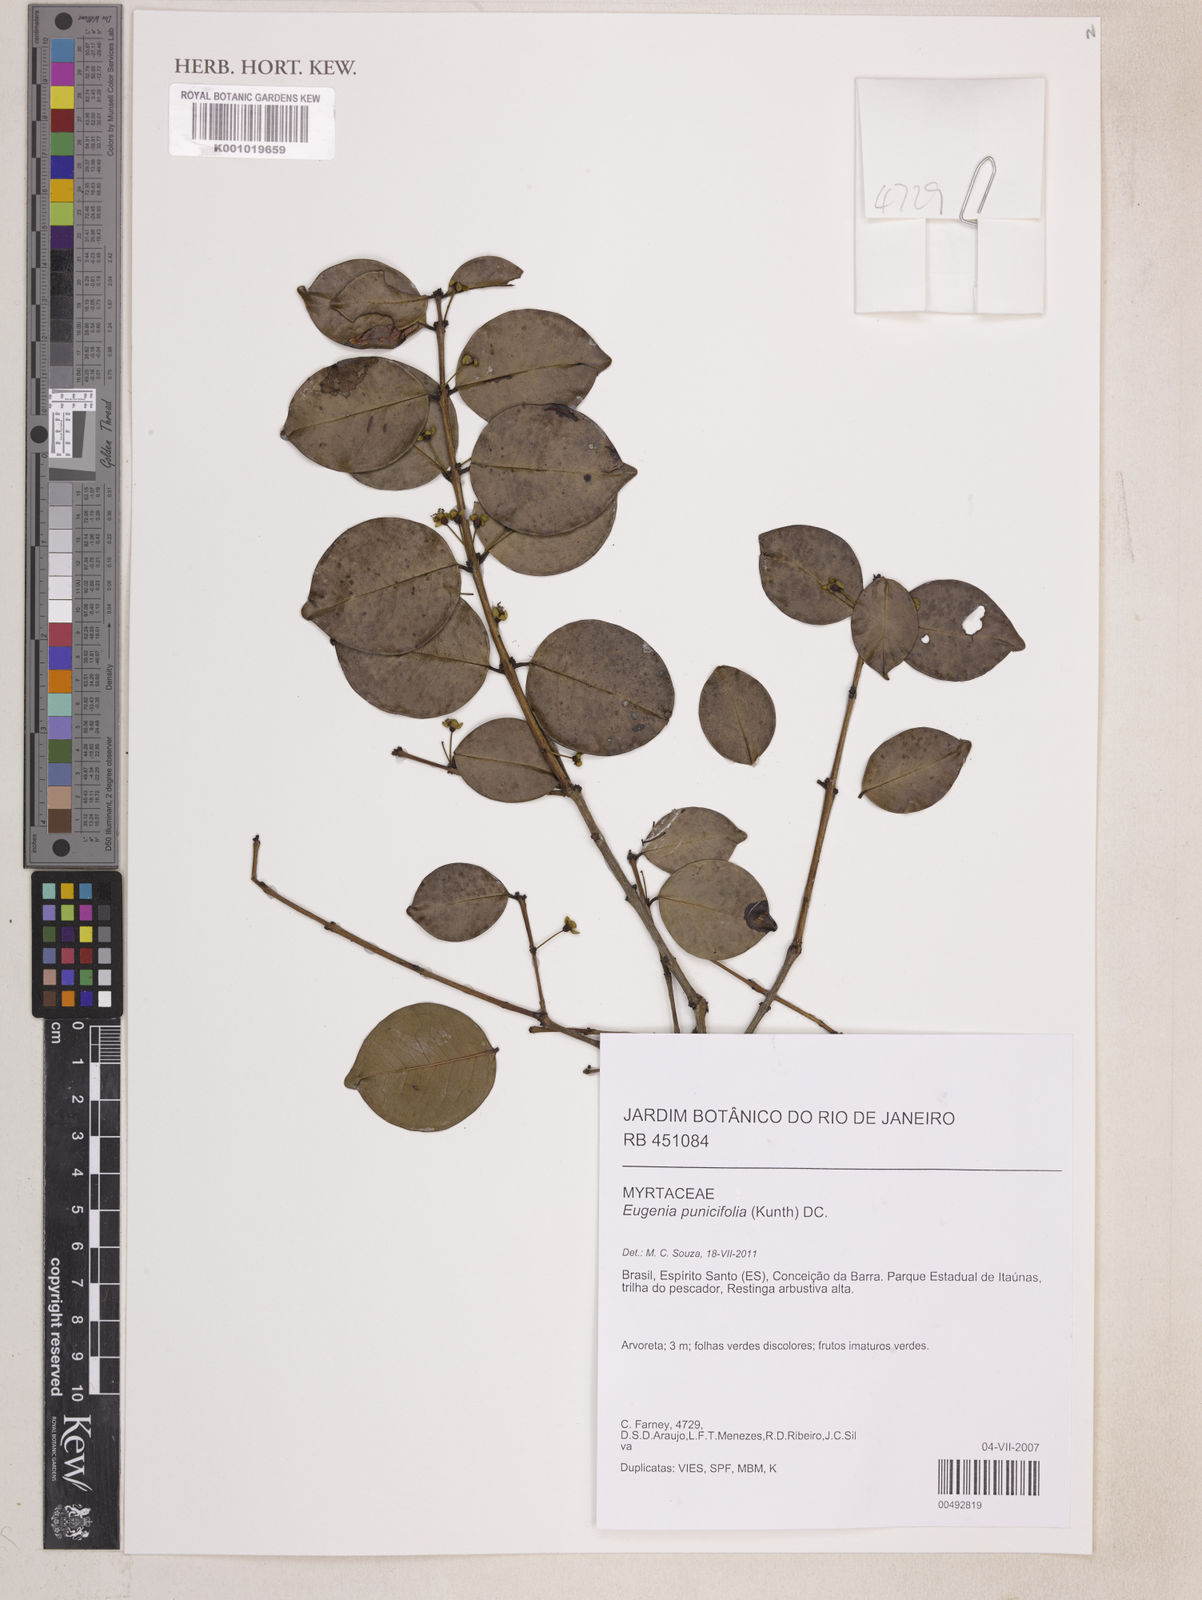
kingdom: Plantae
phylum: Tracheophyta
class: Magnoliopsida
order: Myrtales
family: Myrtaceae
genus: Eugenia
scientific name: Eugenia punicifolia
